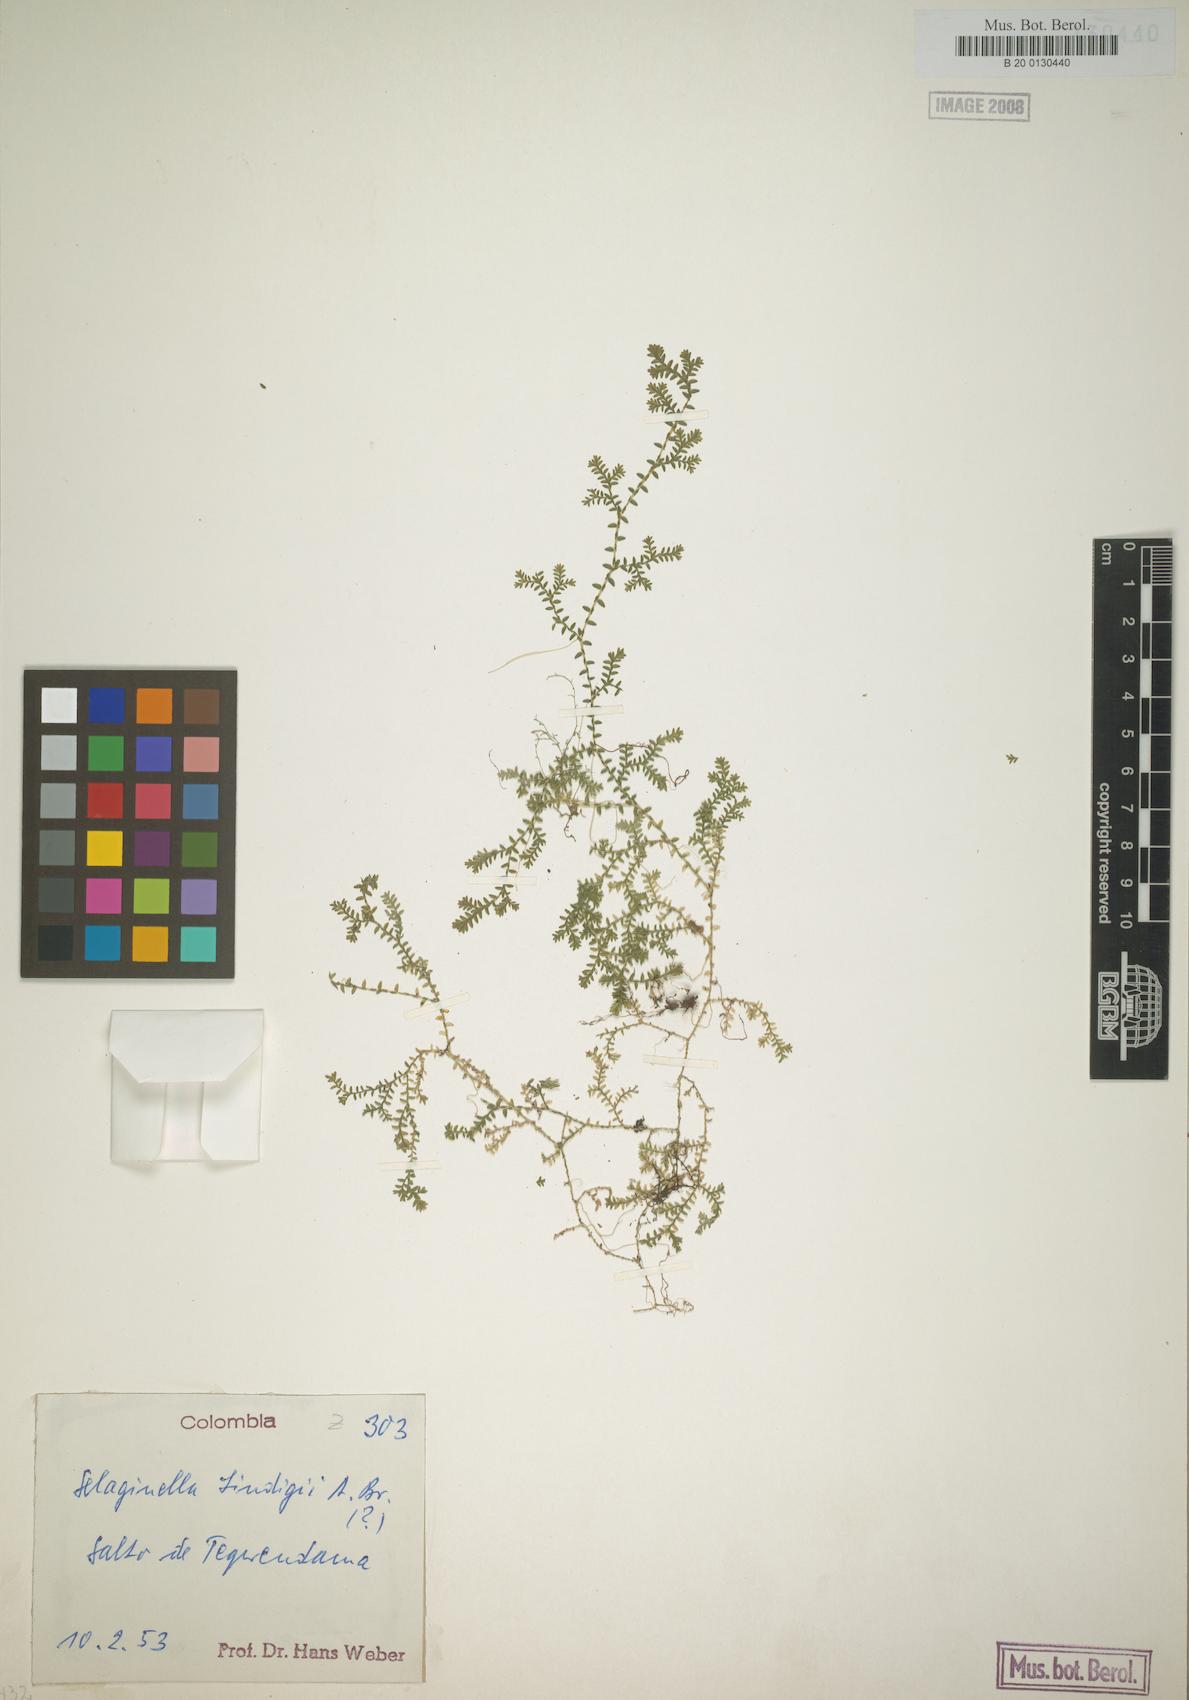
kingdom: Plantae
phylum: Tracheophyta
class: Lycopodiopsida
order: Selaginellales
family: Selaginellaceae
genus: Selaginella
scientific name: Selaginella lingulata
